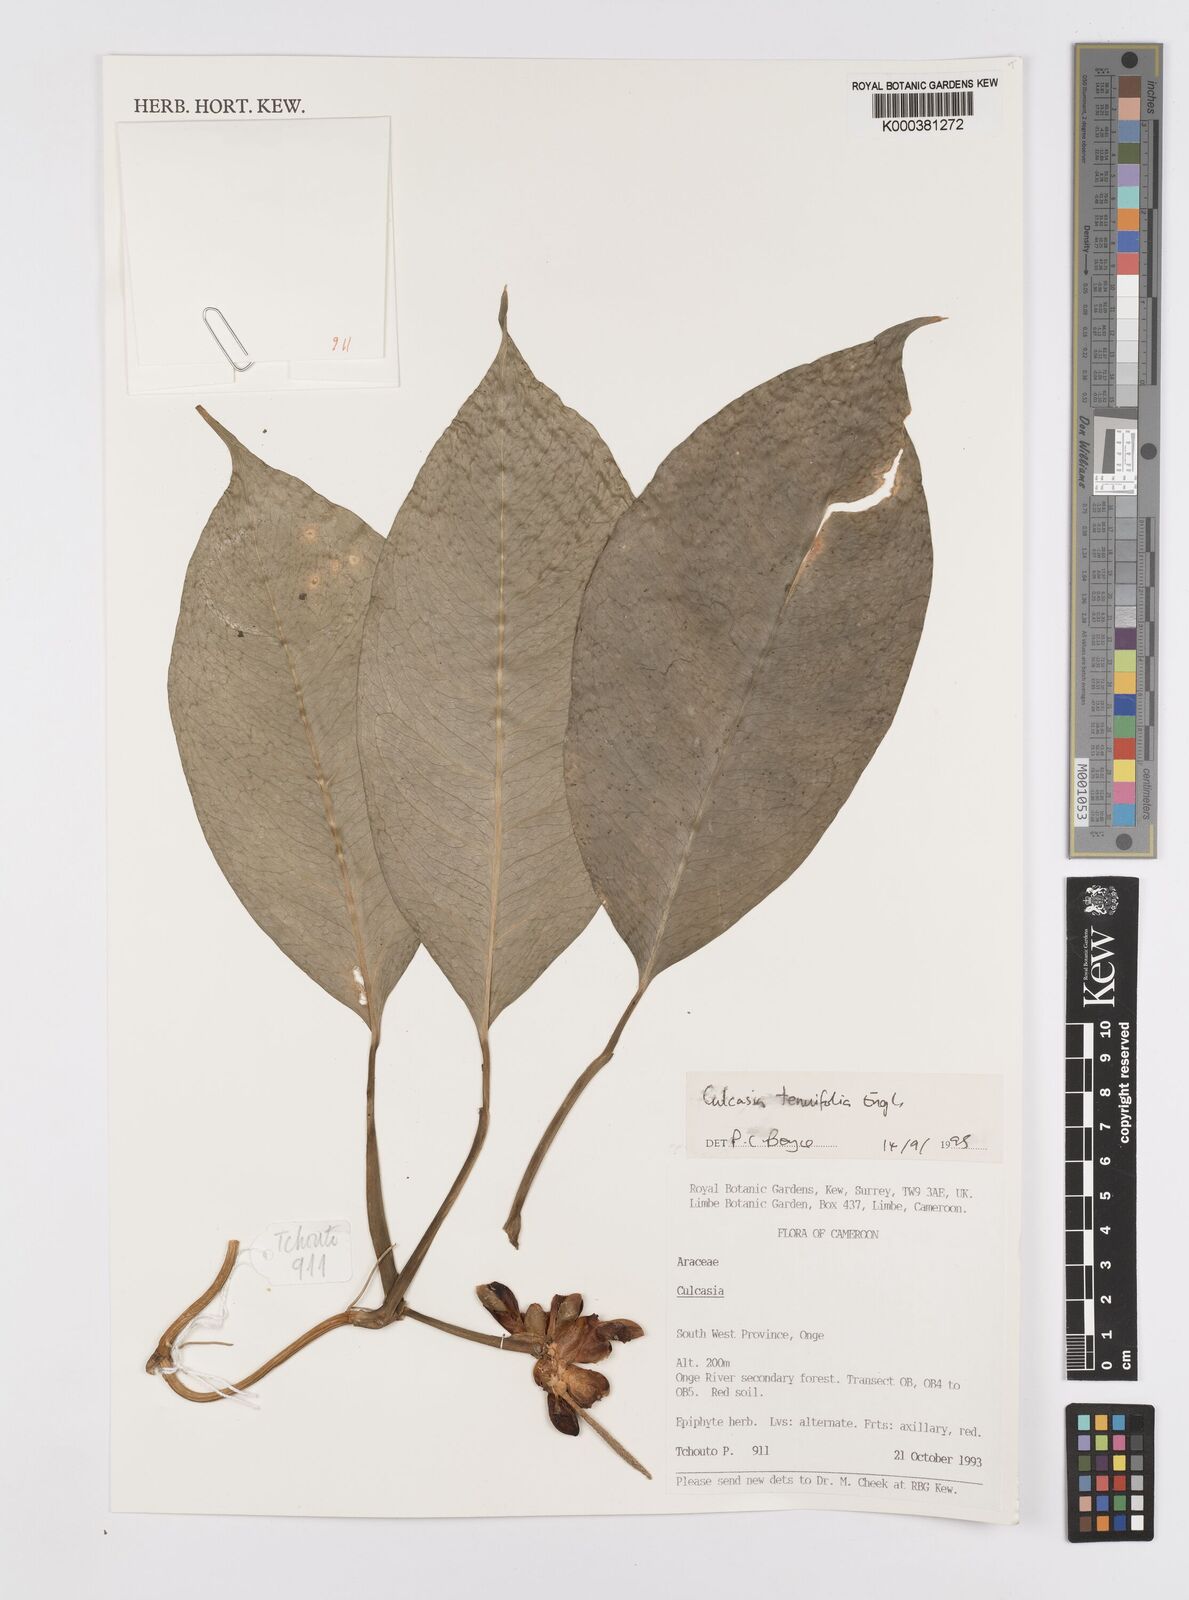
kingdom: Plantae
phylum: Tracheophyta
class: Liliopsida
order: Alismatales
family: Araceae
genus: Culcasia
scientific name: Culcasia tenuifolia
